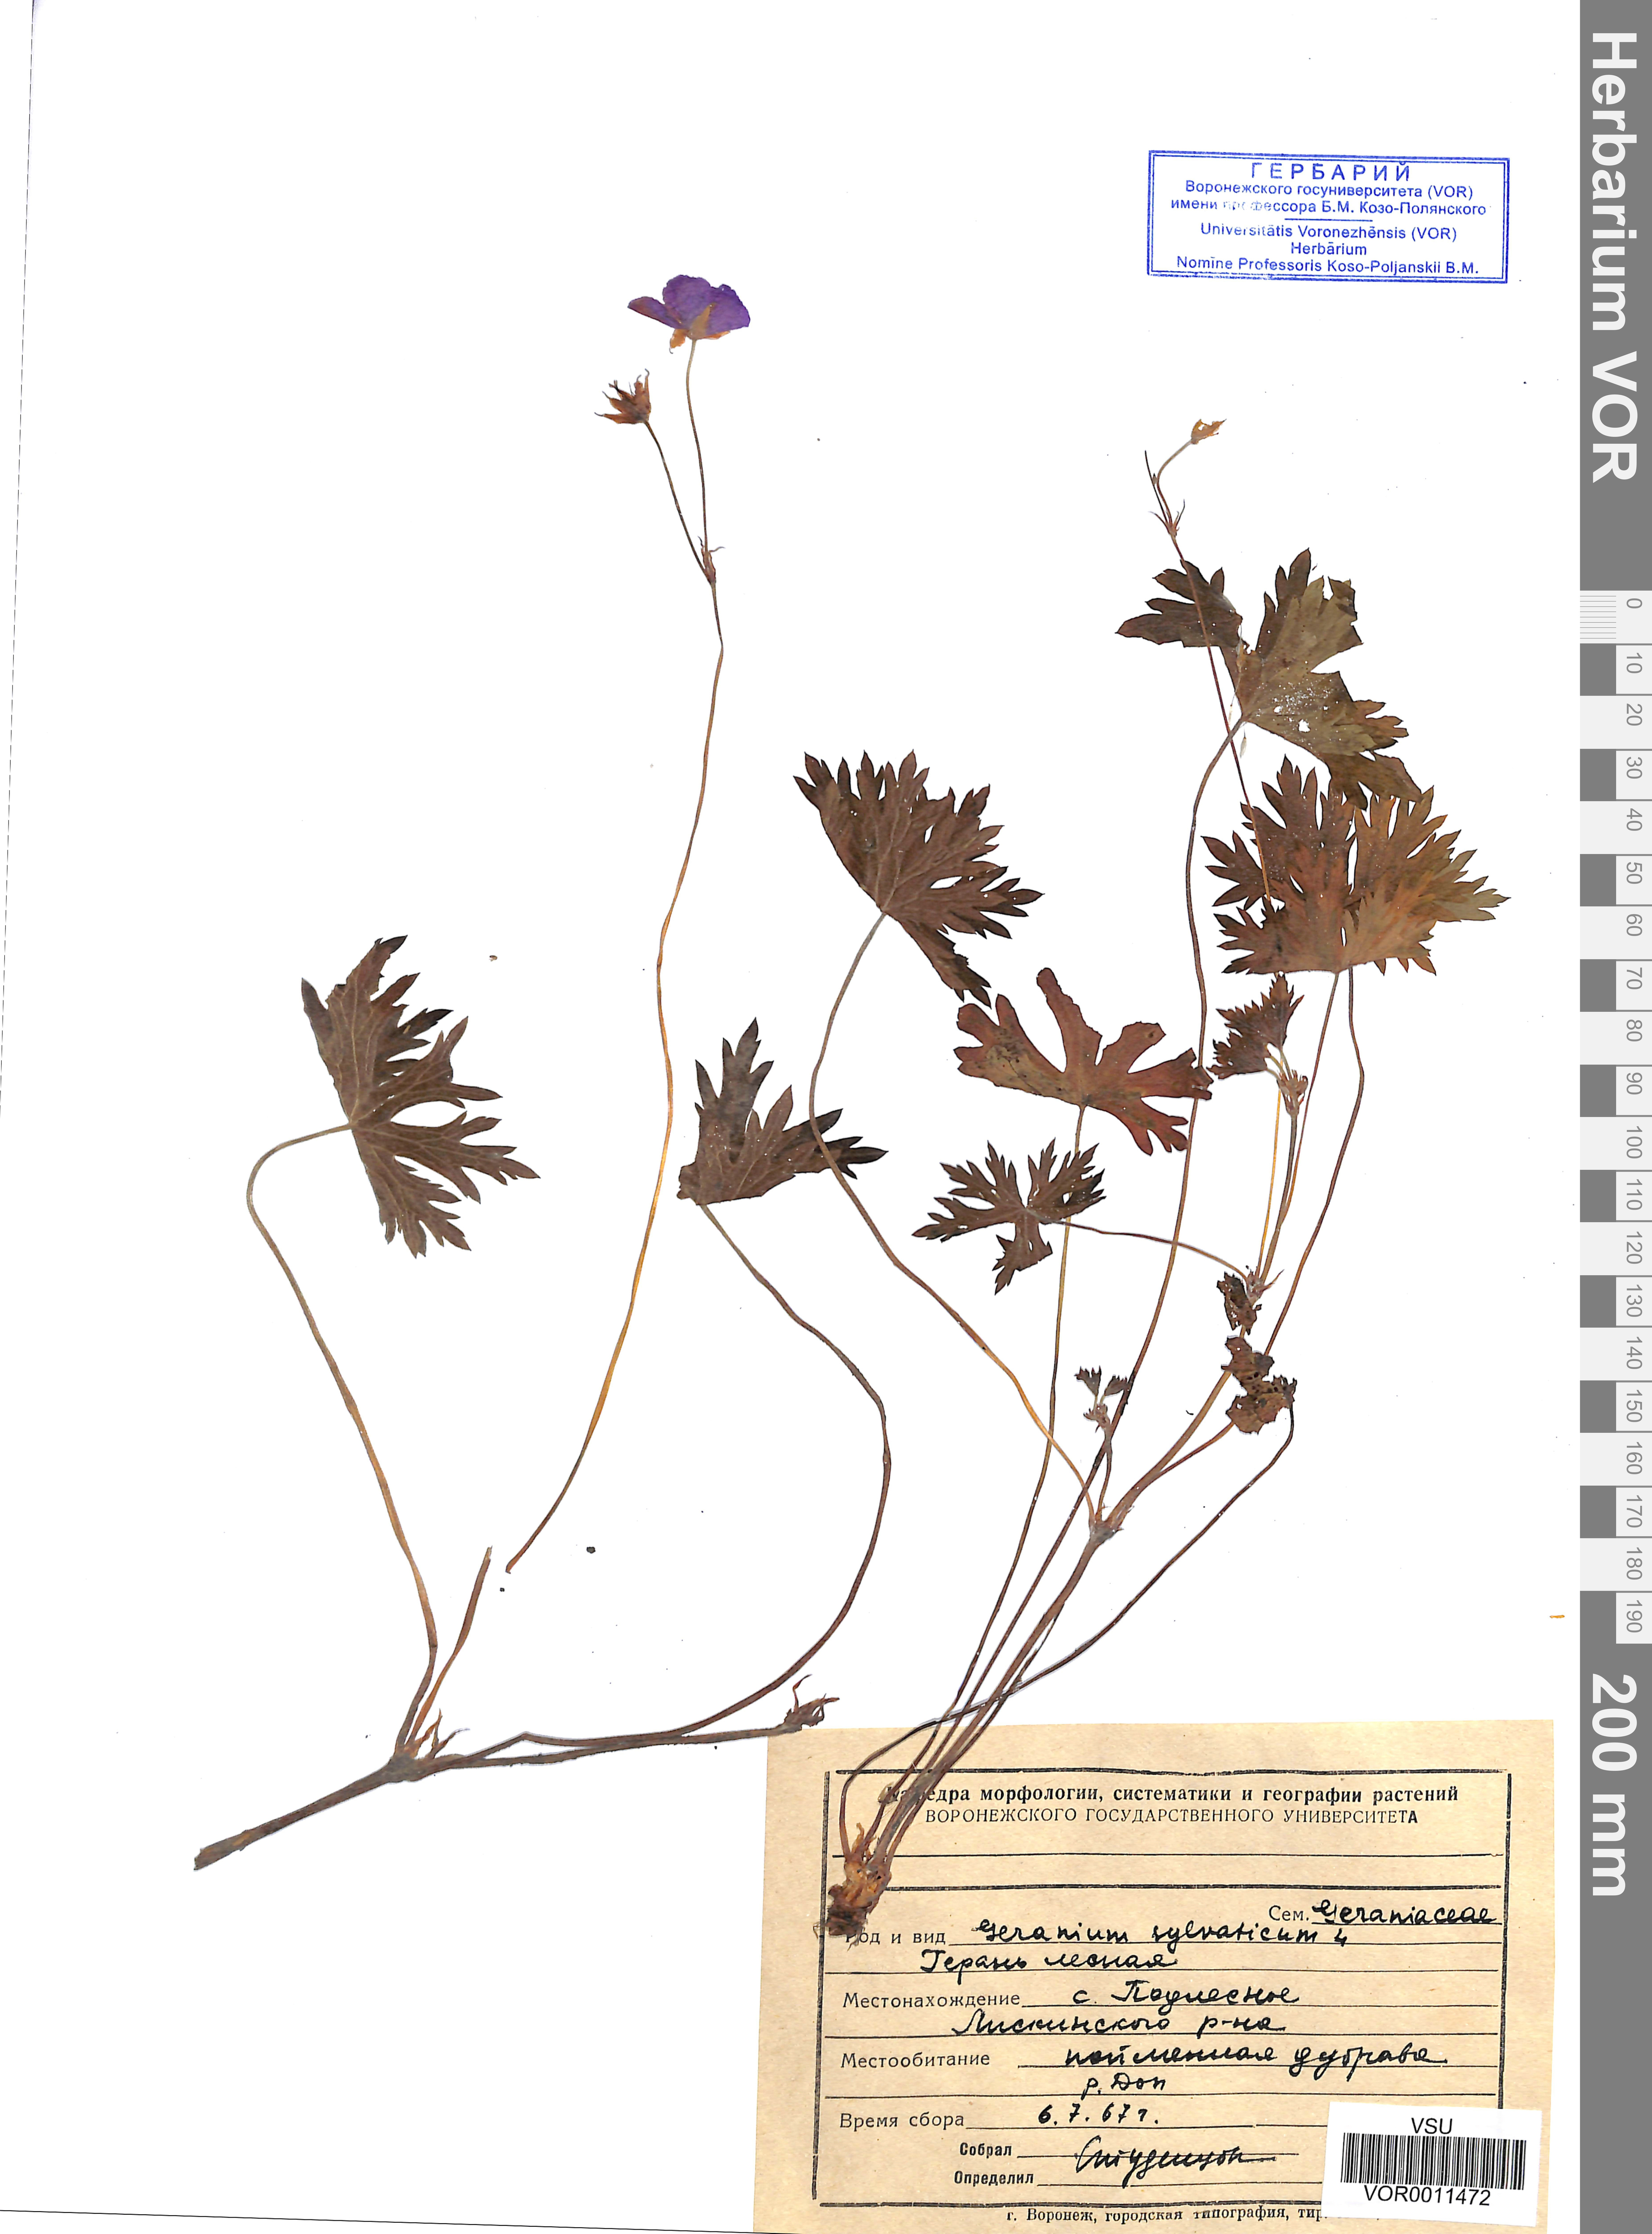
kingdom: Plantae
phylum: Tracheophyta
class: Magnoliopsida
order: Geraniales
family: Geraniaceae
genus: Geranium
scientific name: Geranium sibiricum
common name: Siberian crane's-bill
